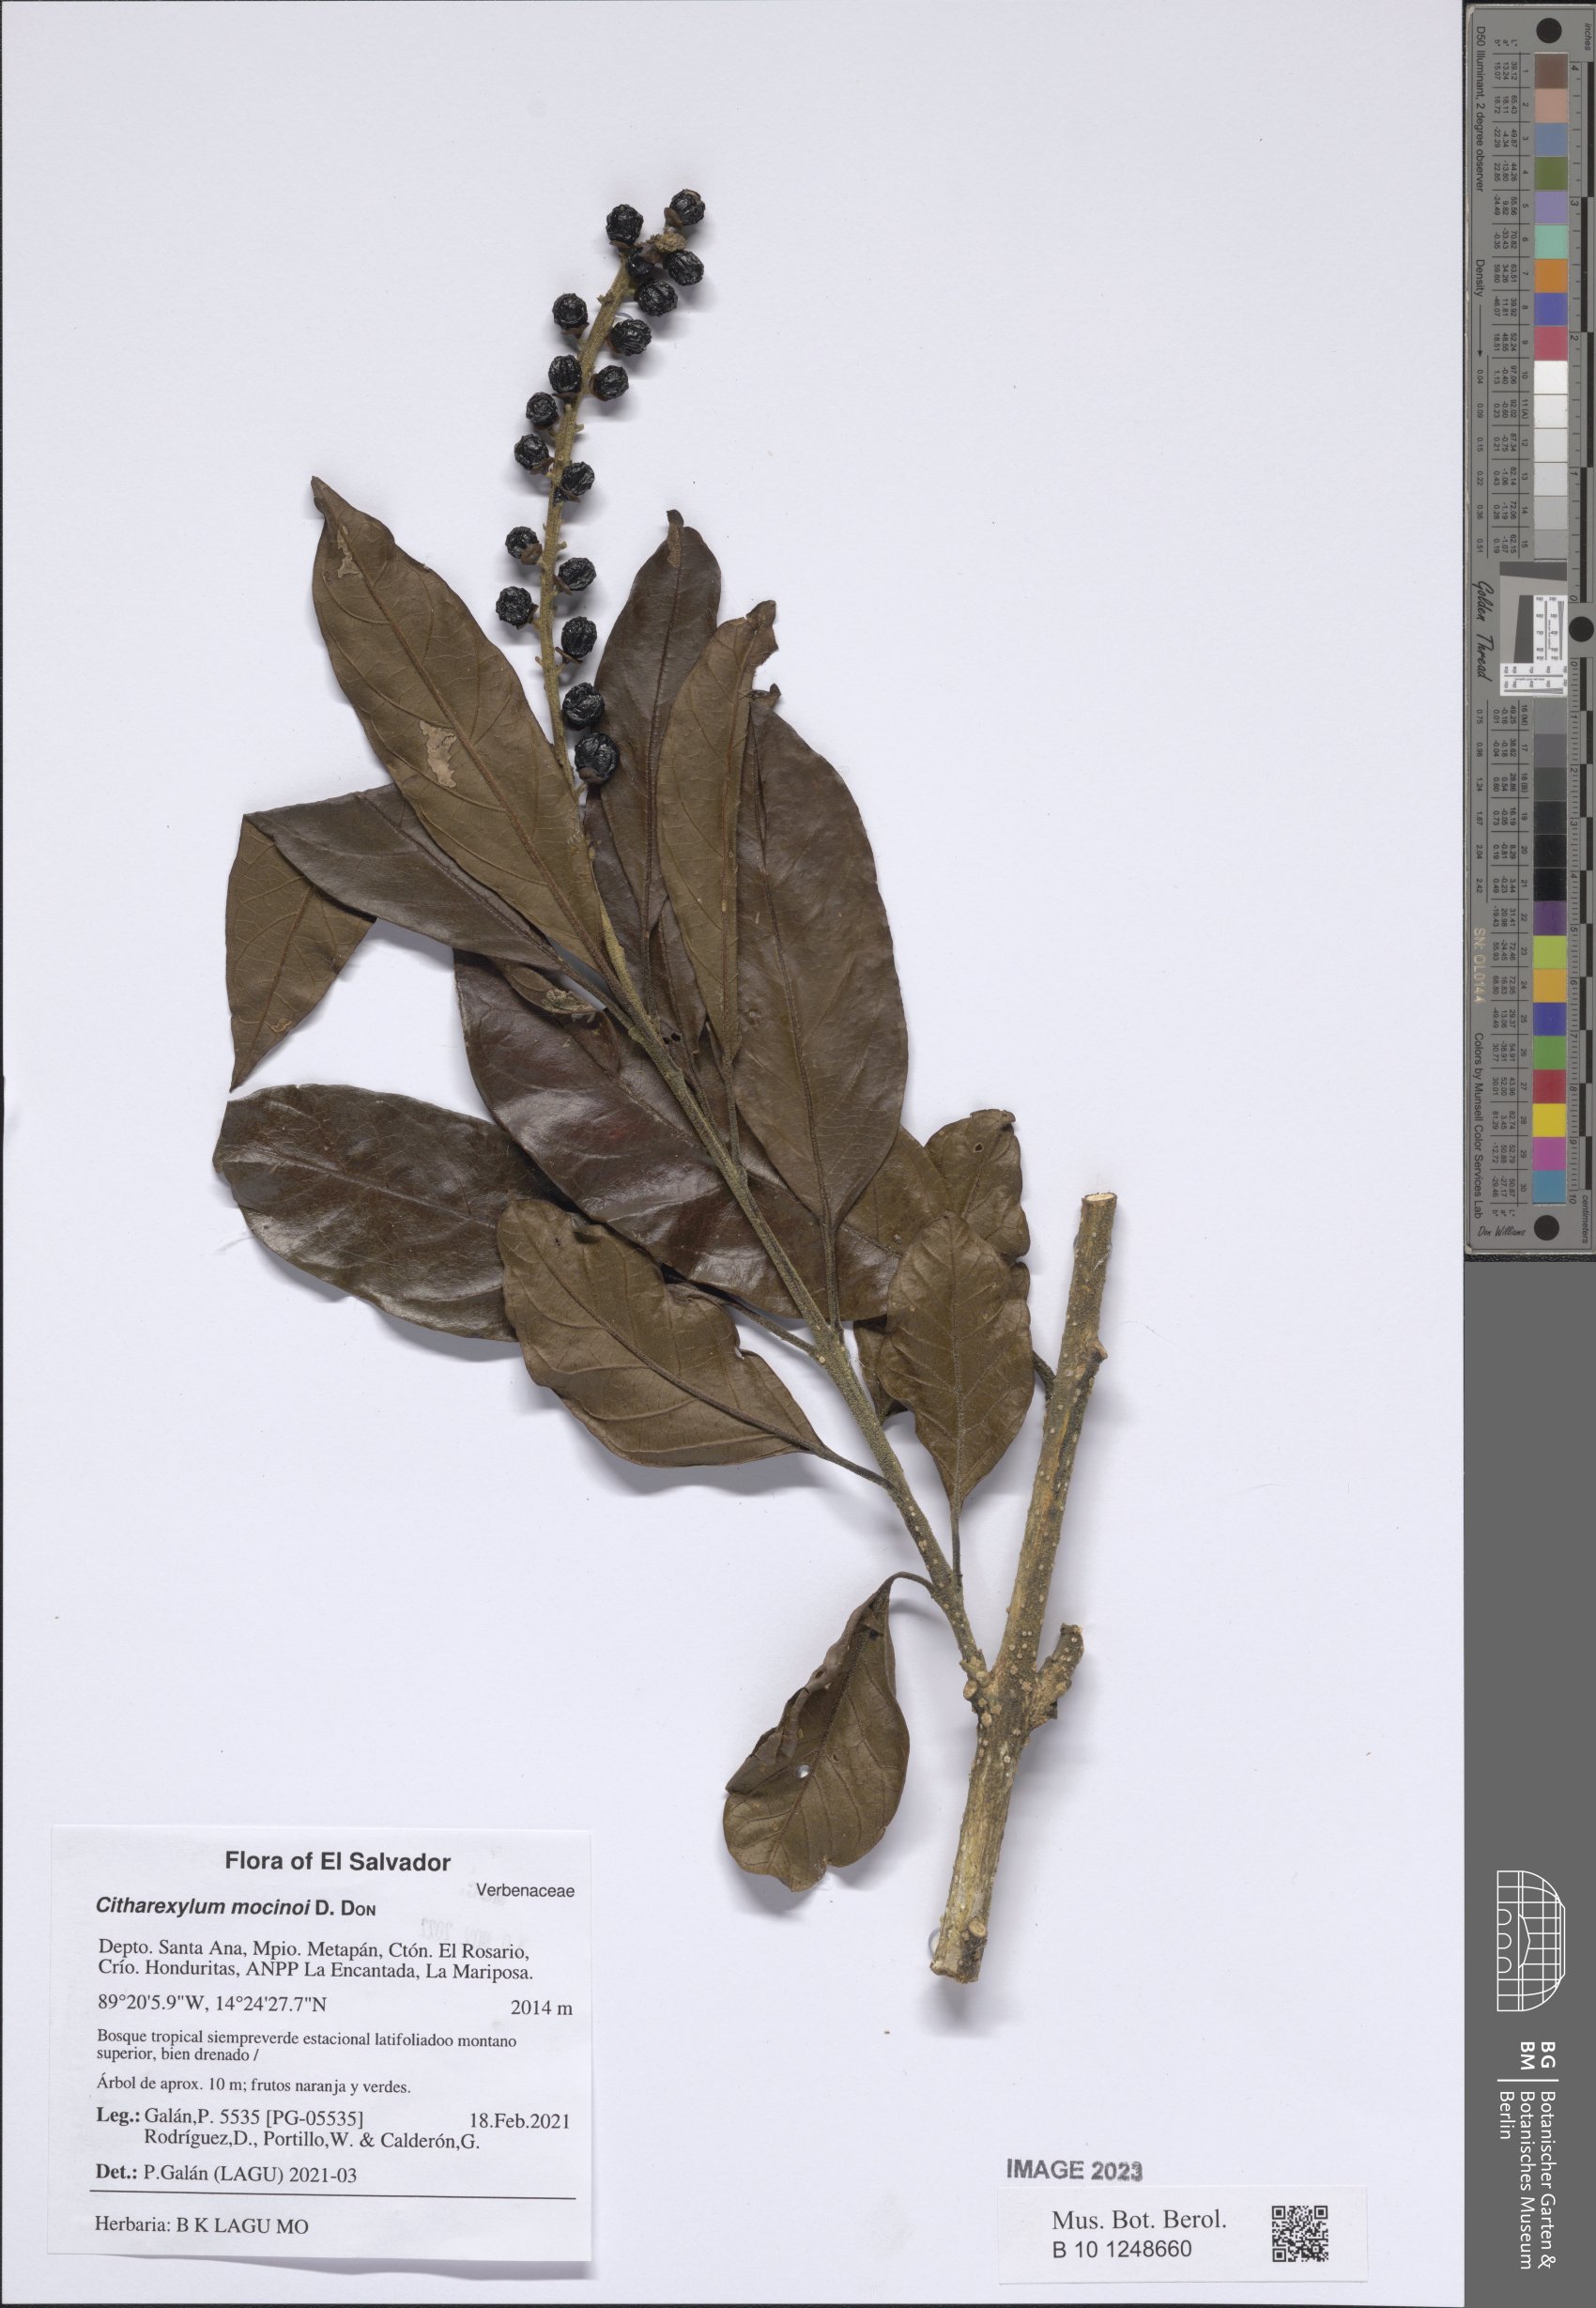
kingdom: Plantae
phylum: Tracheophyta
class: Magnoliopsida
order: Lamiales
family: Verbenaceae
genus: Citharexylum
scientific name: Citharexylum mocinoi
